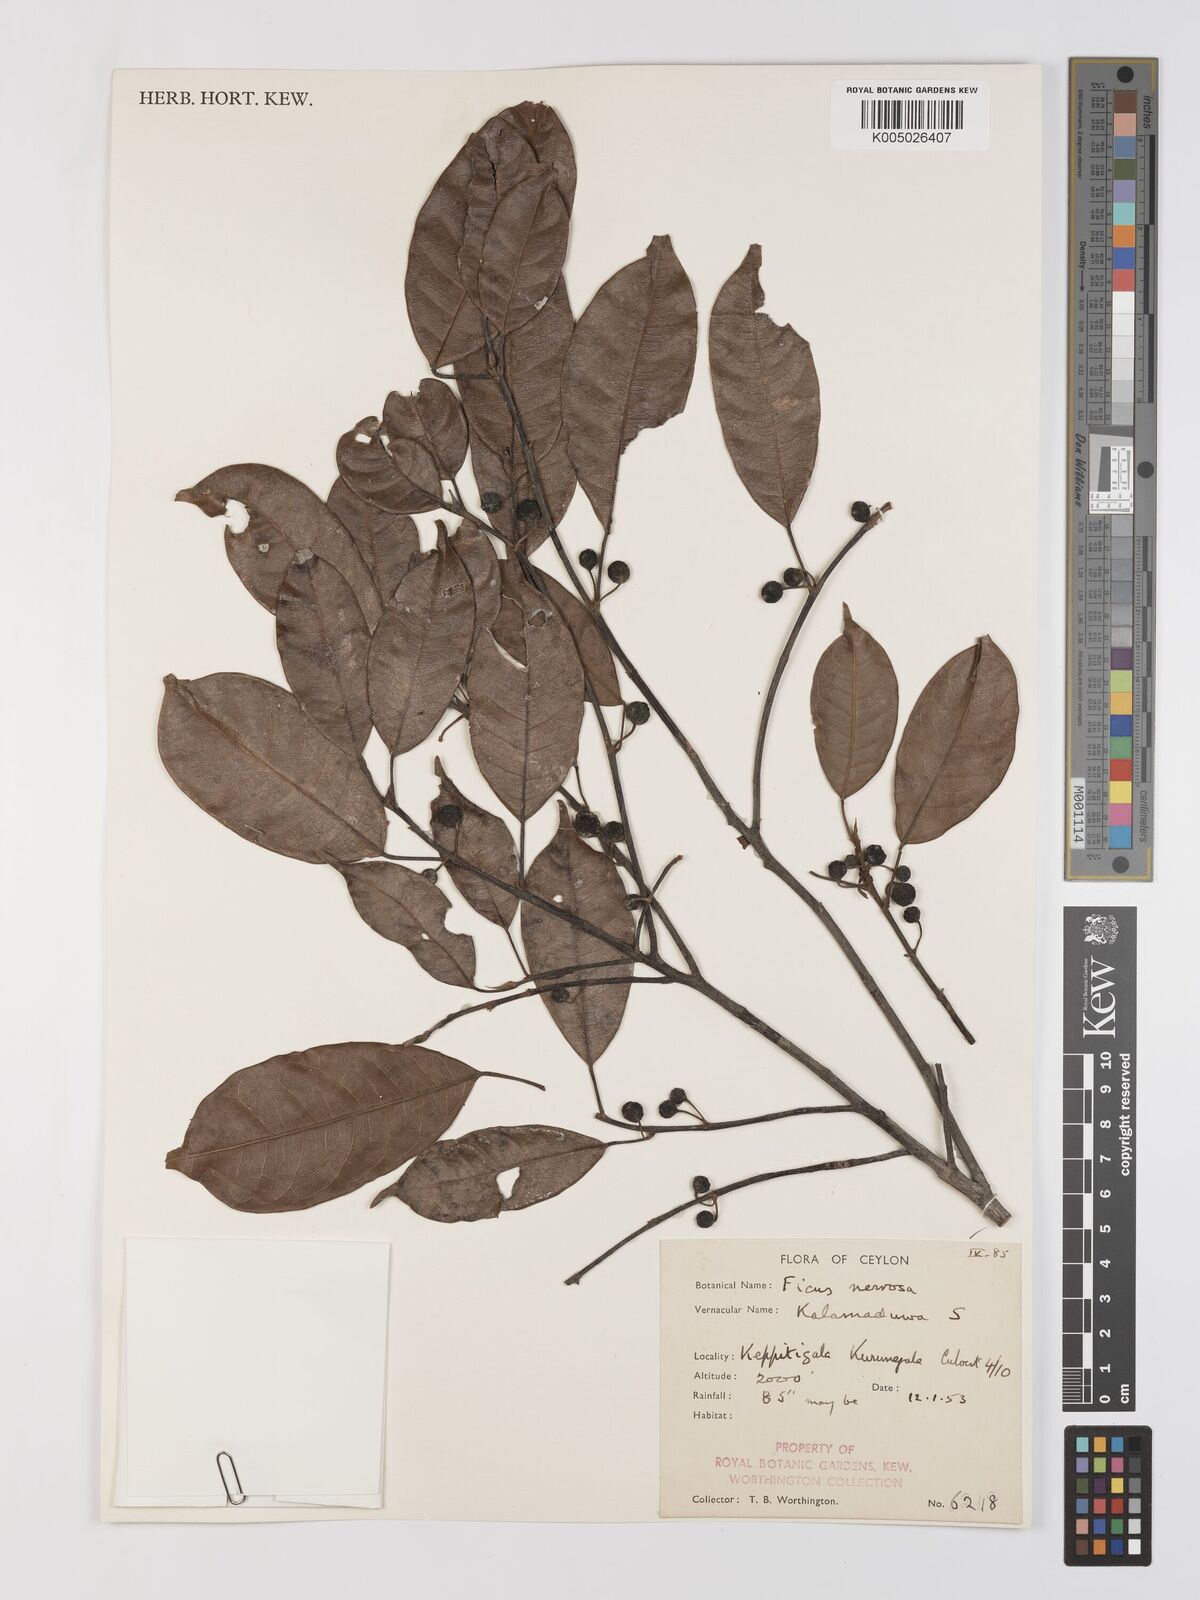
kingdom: Plantae
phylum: Tracheophyta
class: Magnoliopsida
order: Rosales
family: Moraceae
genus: Ficus
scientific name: Ficus nervosa
